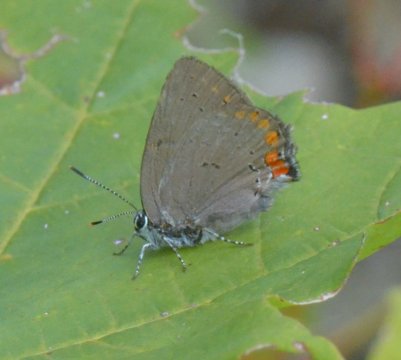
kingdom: Animalia
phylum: Arthropoda
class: Insecta
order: Lepidoptera
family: Lycaenidae
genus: Harkenclenus
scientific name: Harkenclenus titus
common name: Coral Hairstreak
